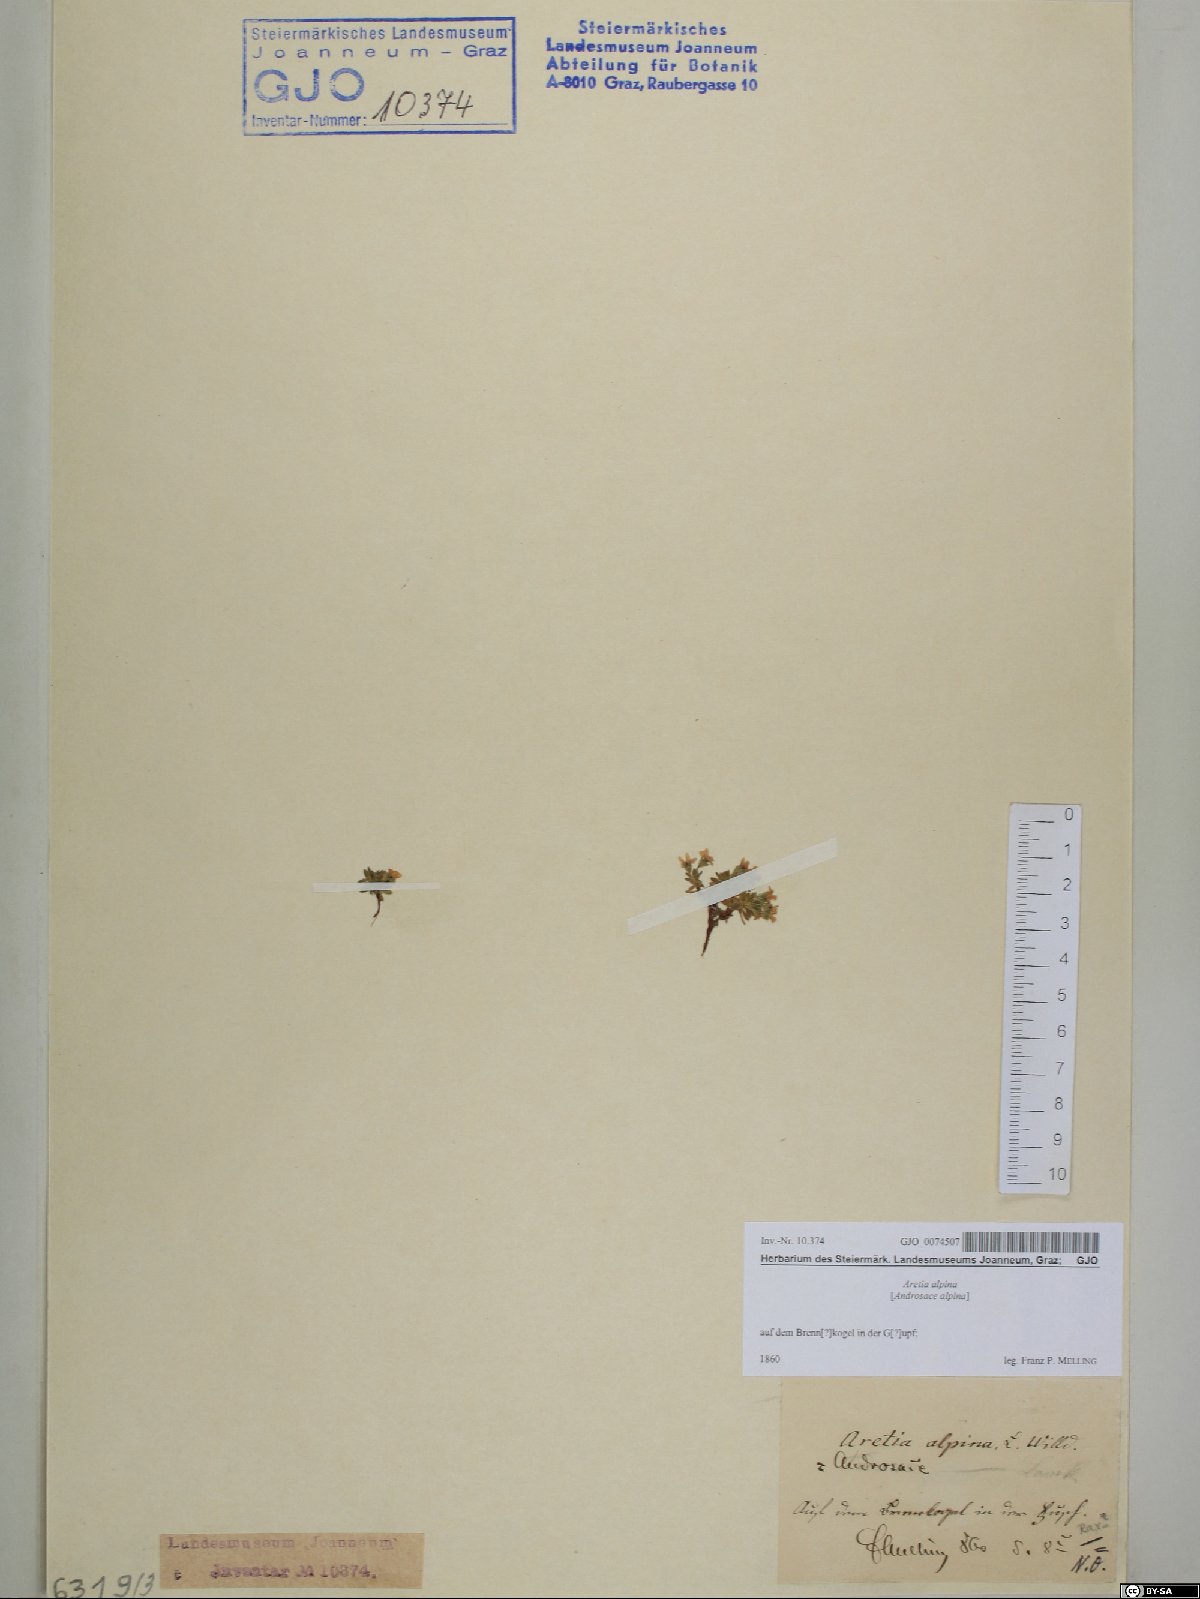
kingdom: Plantae
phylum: Tracheophyta
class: Magnoliopsida
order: Ericales
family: Primulaceae
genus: Androsace
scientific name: Androsace alpina
